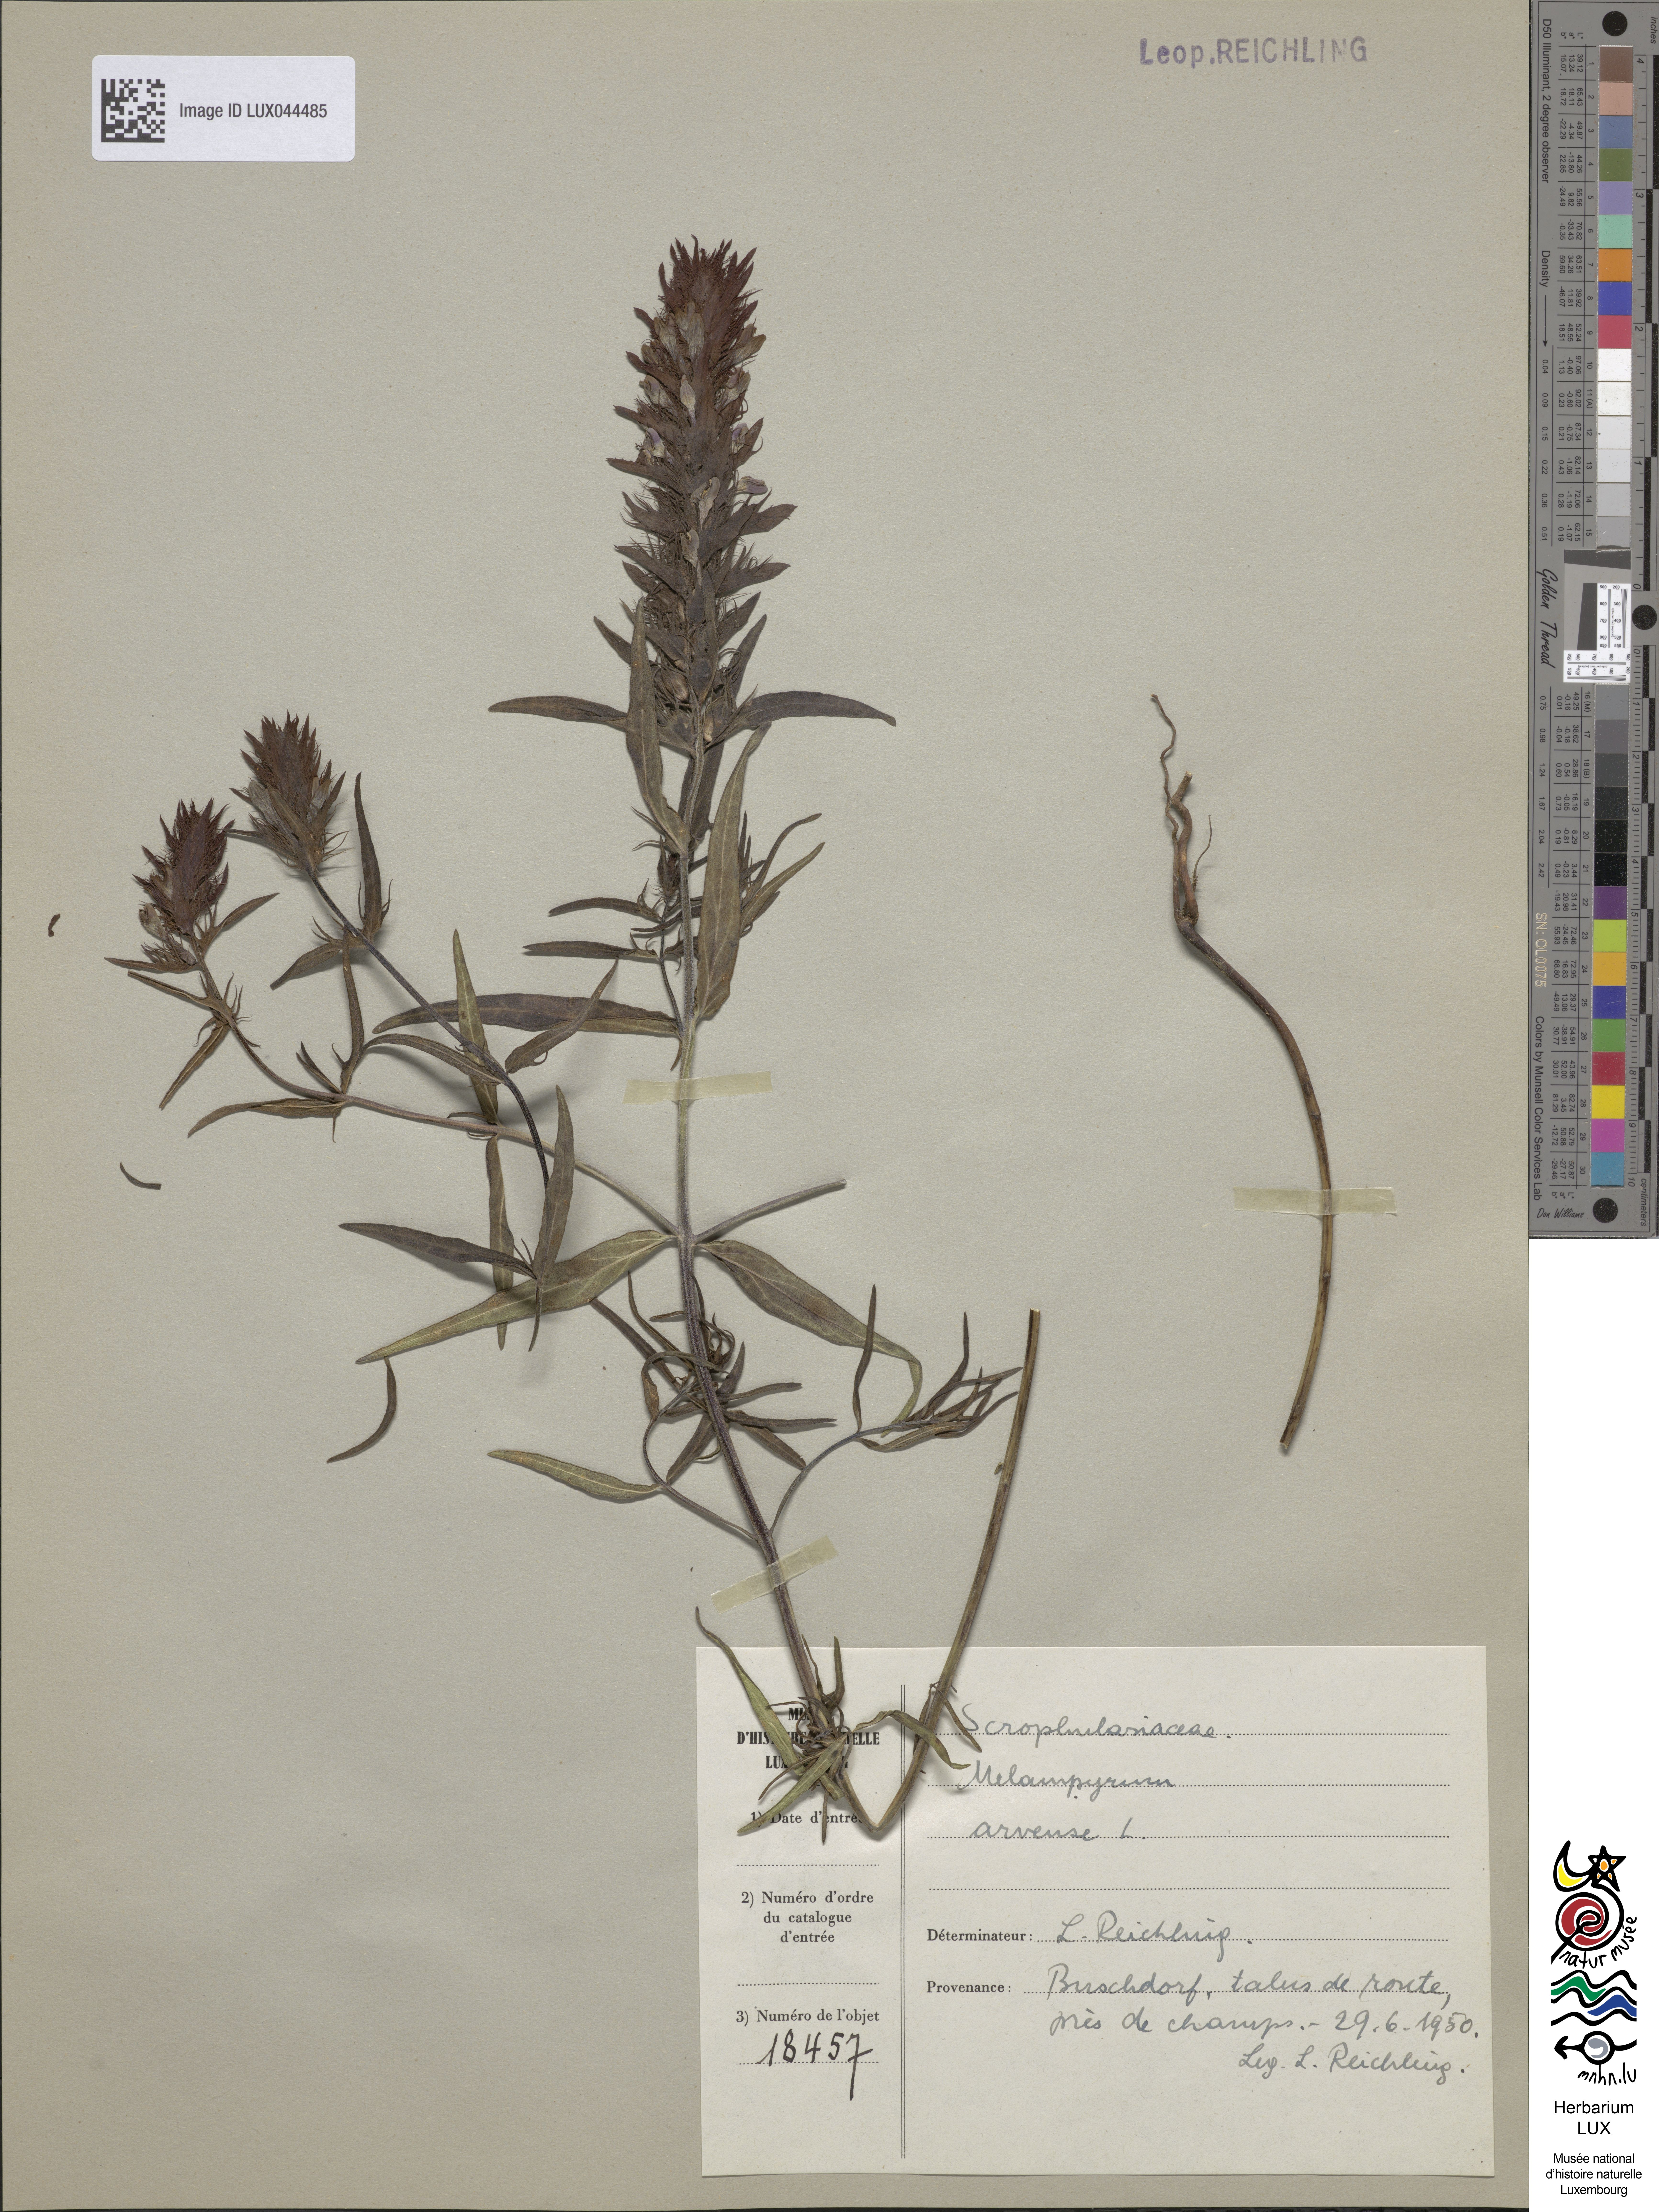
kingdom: Plantae
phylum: Tracheophyta
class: Magnoliopsida
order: Lamiales
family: Orobanchaceae
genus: Melampyrum
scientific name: Melampyrum arvense
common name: Field cow-wheat
